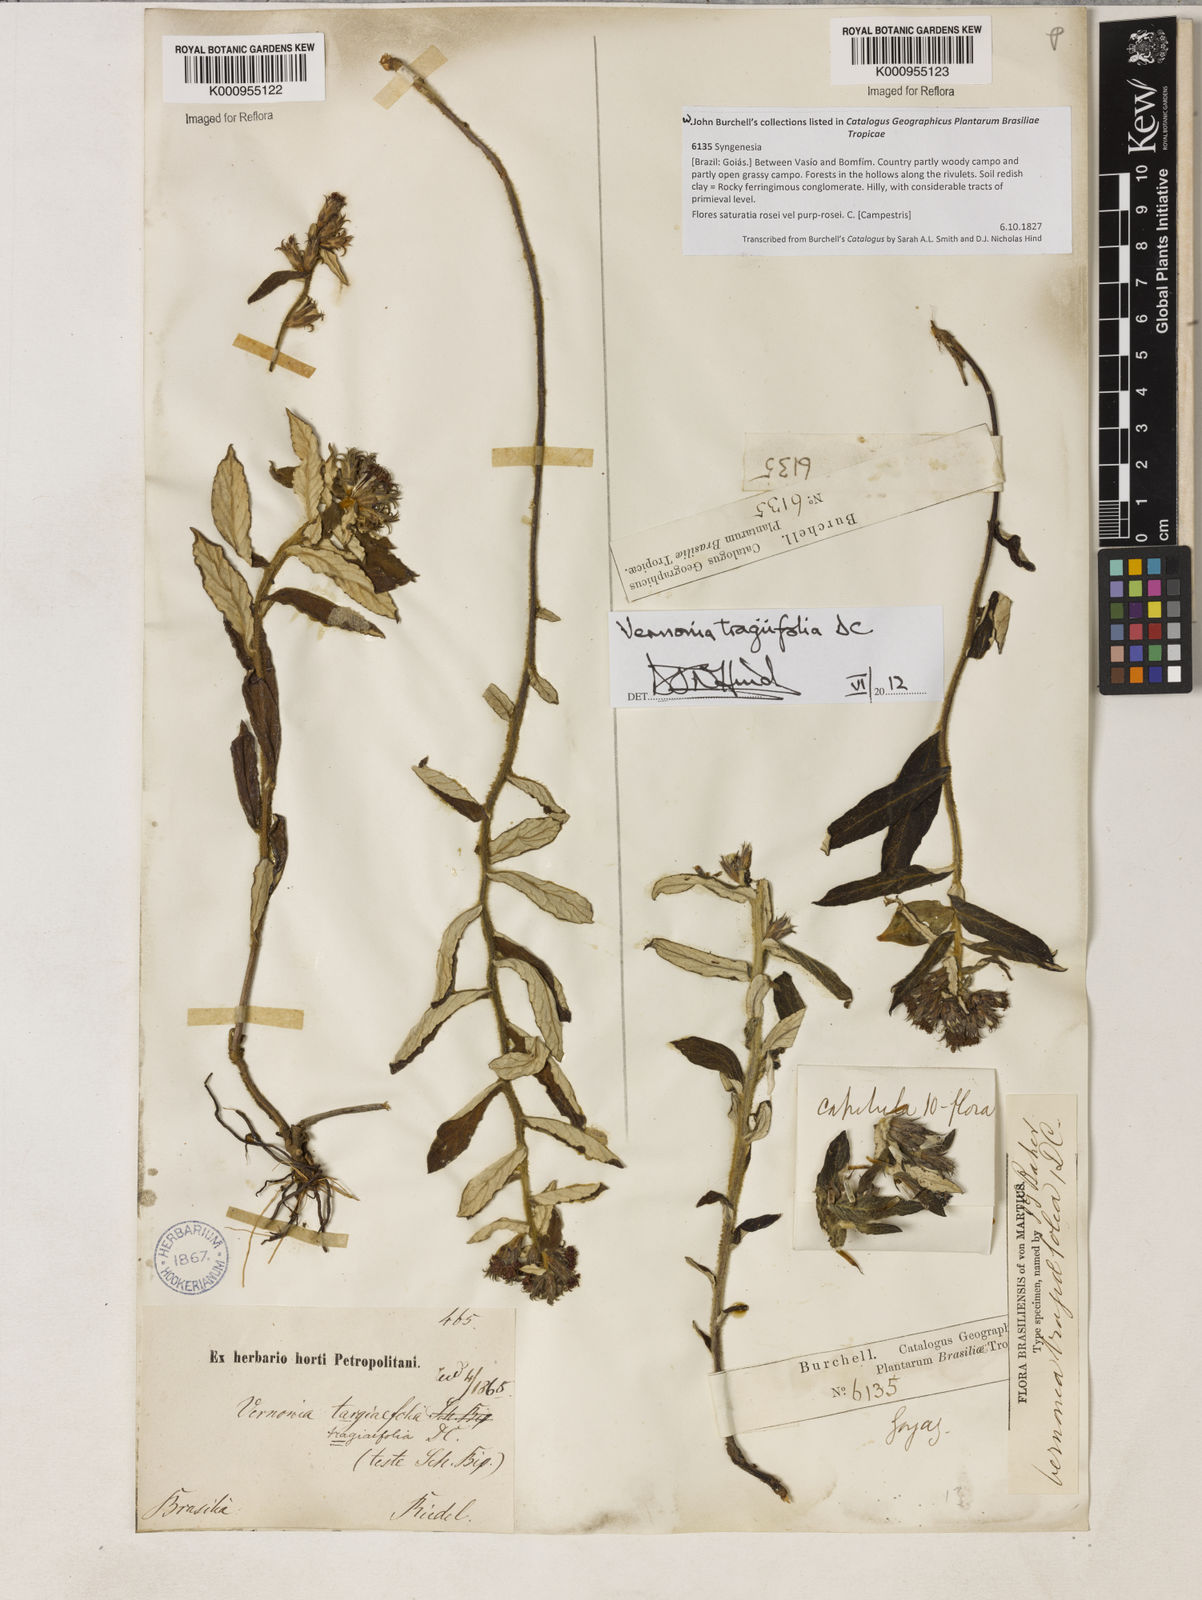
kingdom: Plantae
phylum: Tracheophyta
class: Magnoliopsida
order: Asterales
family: Asteraceae
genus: Stenocephalum
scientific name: Stenocephalum tragiifolium
